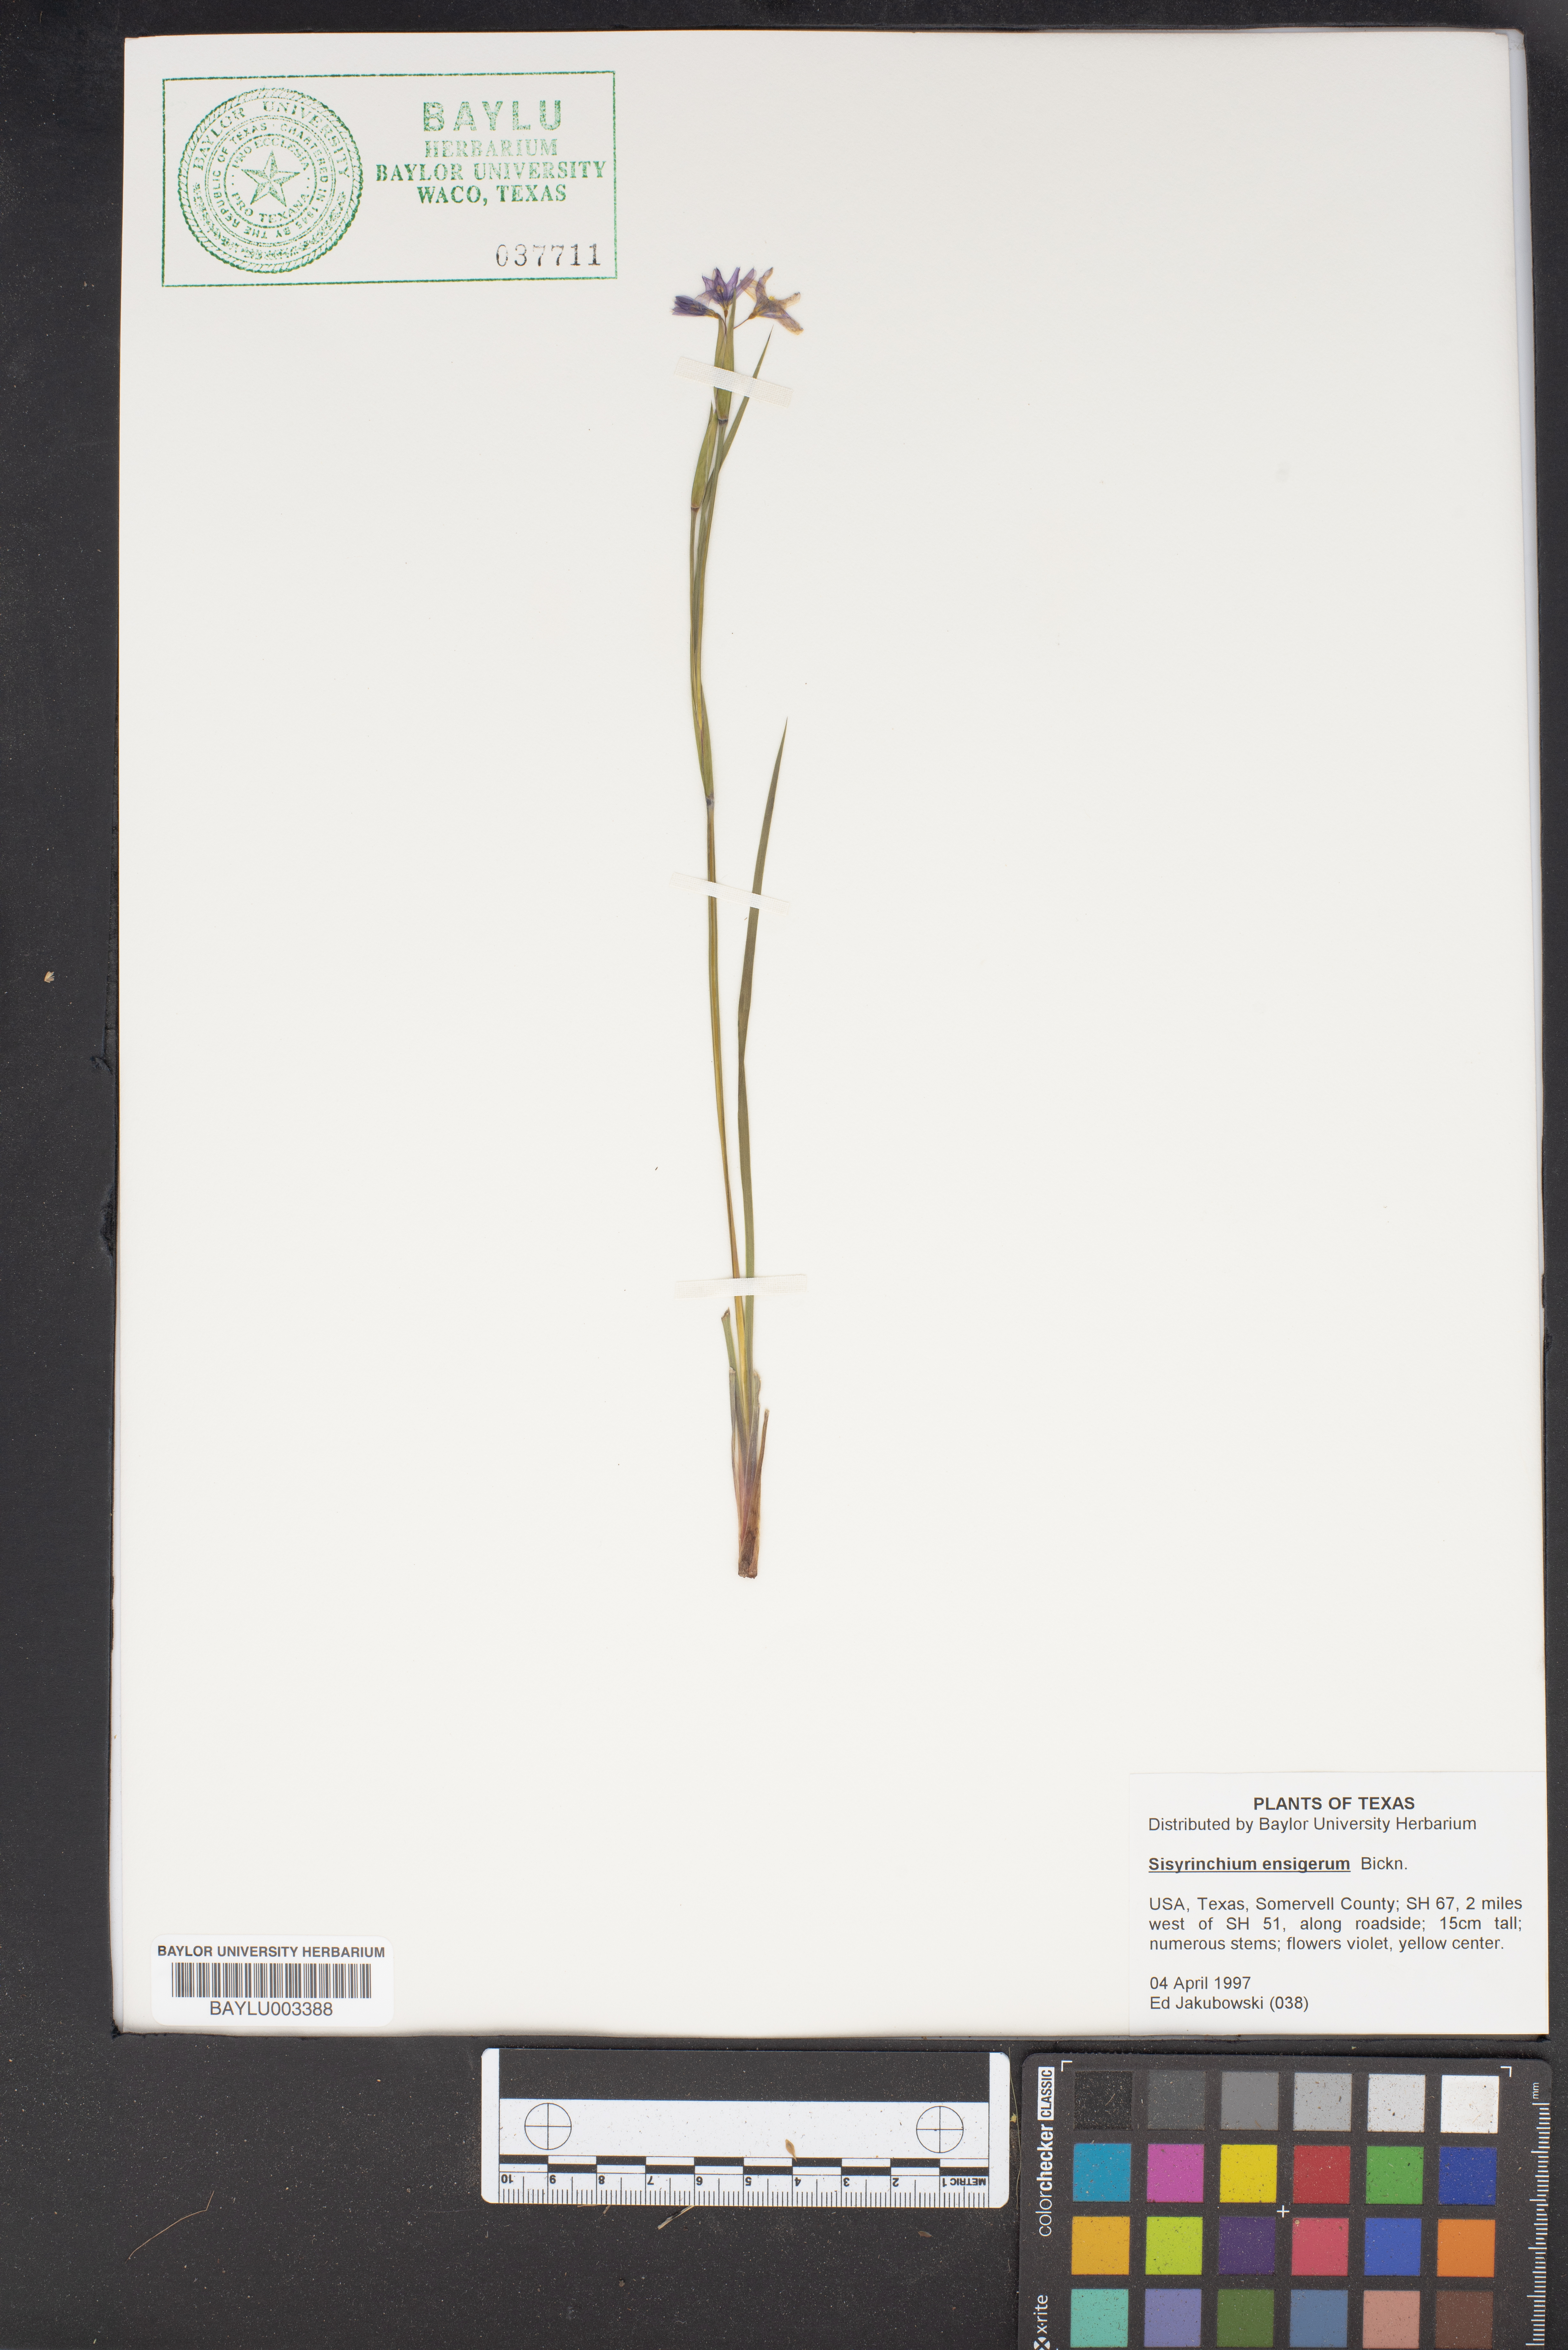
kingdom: Plantae
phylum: Tracheophyta
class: Liliopsida
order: Asparagales
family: Iridaceae
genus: Sisyrinchium
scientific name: Sisyrinchium ensigerum
